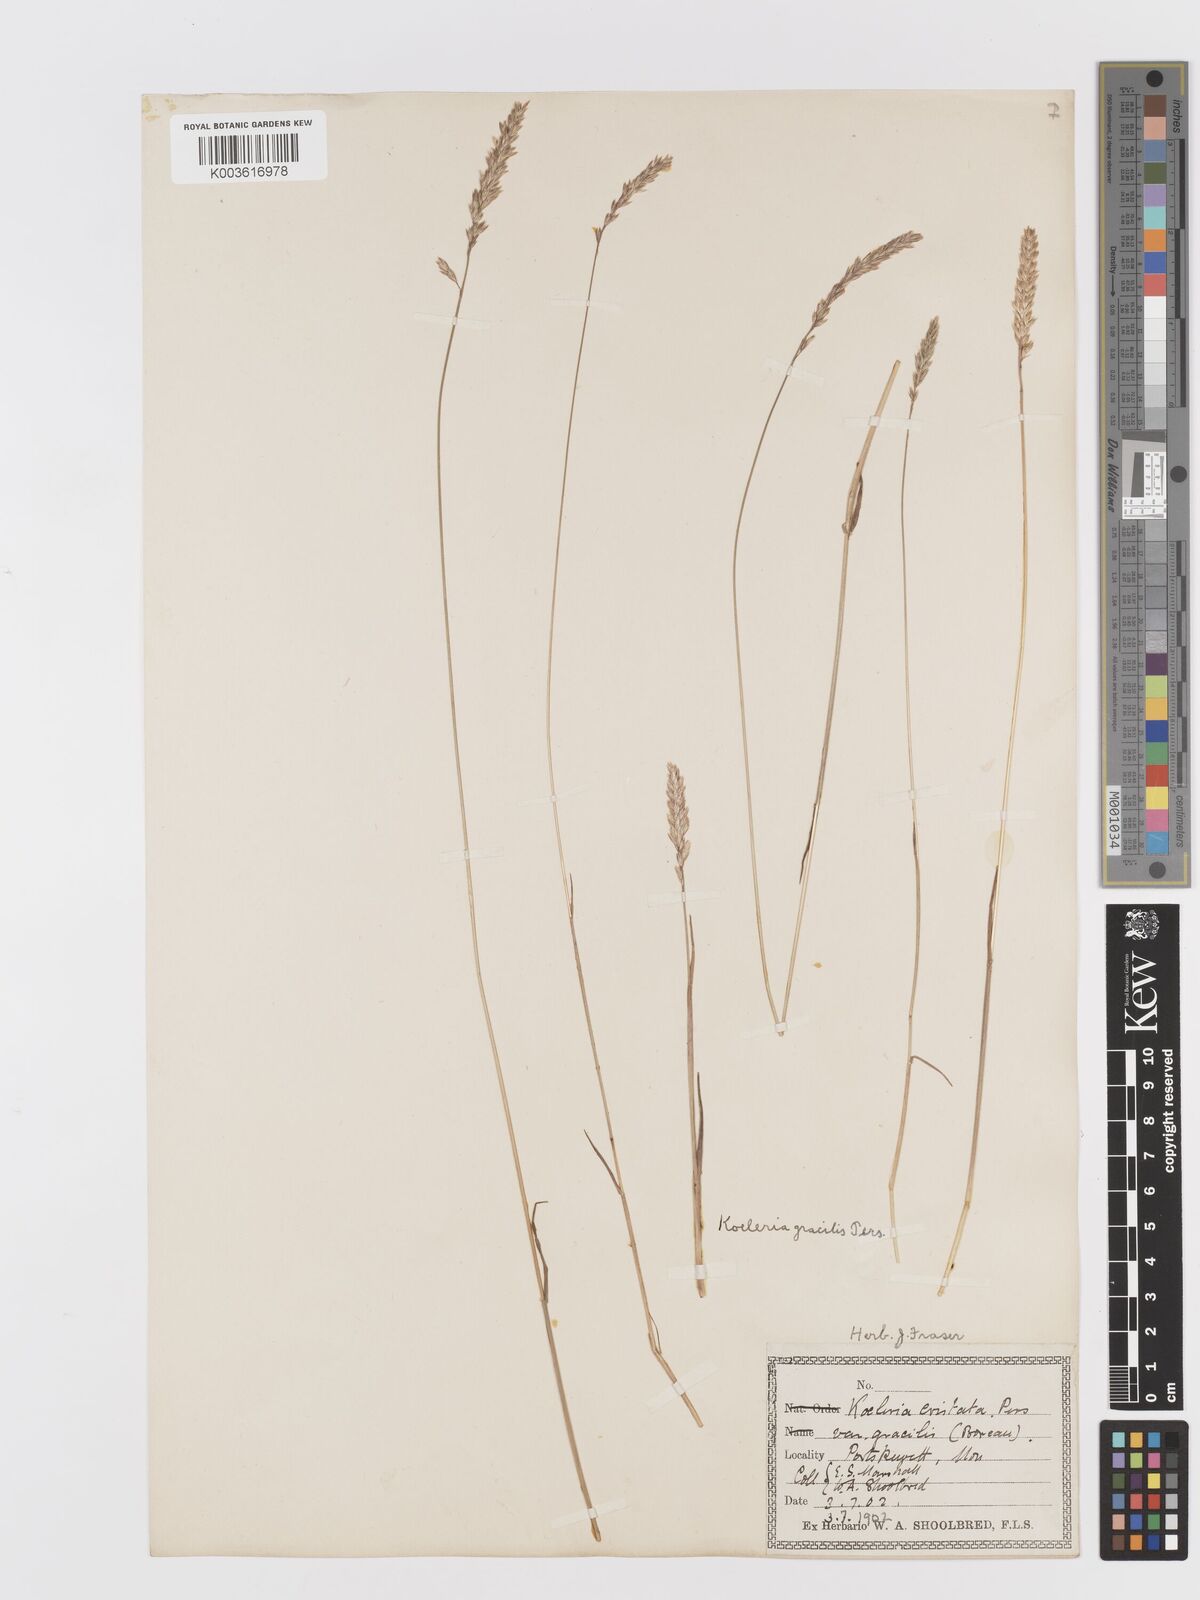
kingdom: Plantae
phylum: Tracheophyta
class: Liliopsida
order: Poales
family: Poaceae
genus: Koeleria
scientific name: Koeleria macrantha
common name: Crested hair-grass
